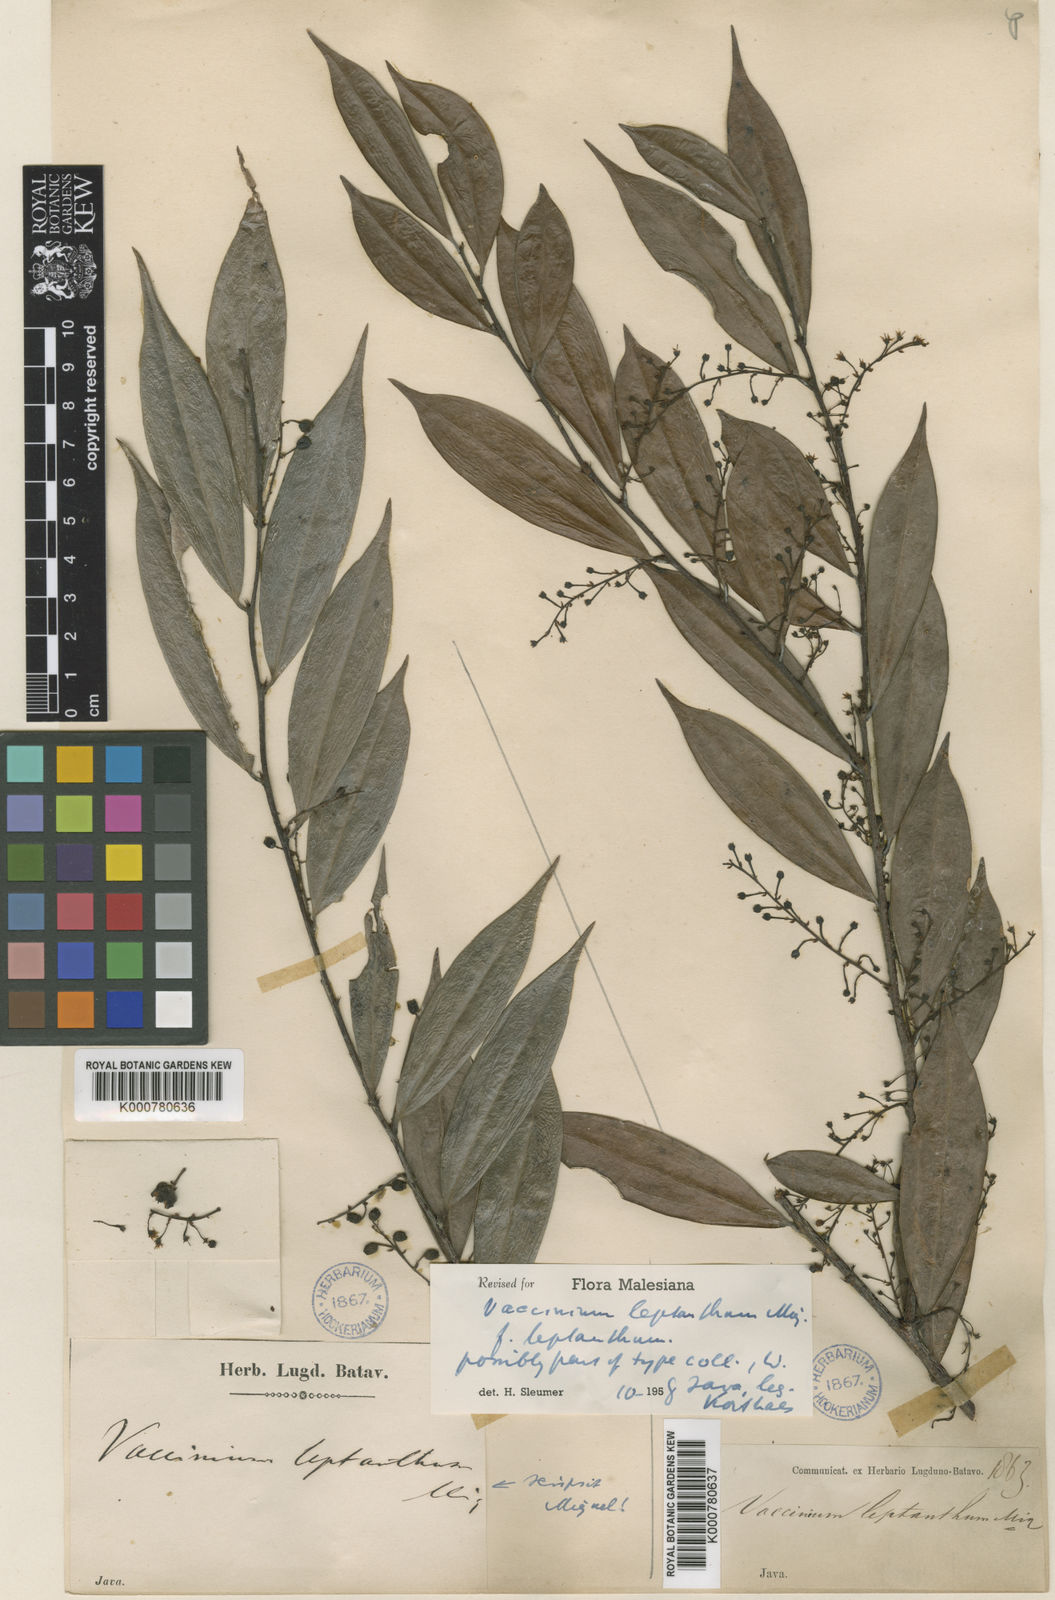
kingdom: Plantae
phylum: Tracheophyta
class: Magnoliopsida
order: Ericales
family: Ericaceae
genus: Rigiolepis
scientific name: Rigiolepis leptantha
